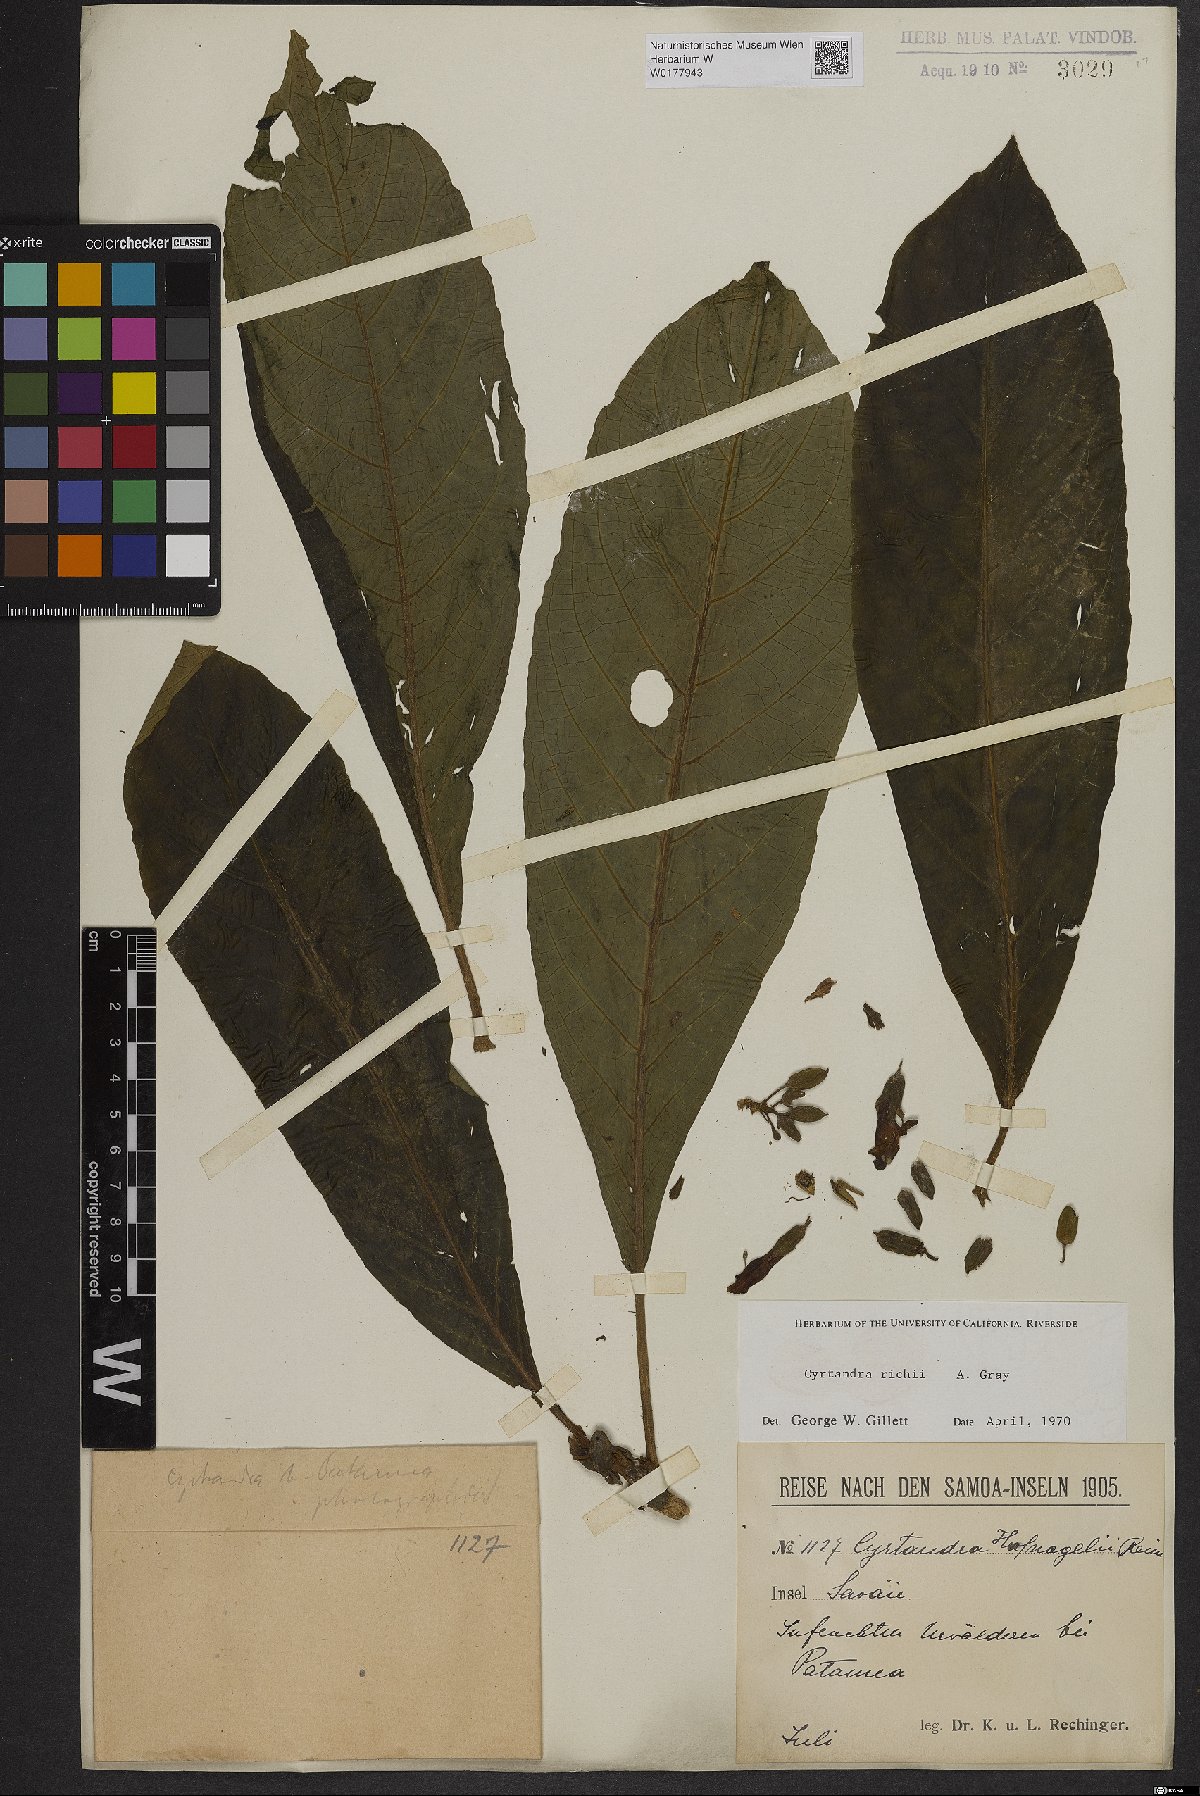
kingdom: Plantae
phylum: Tracheophyta
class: Magnoliopsida
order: Lamiales
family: Gesneriaceae
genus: Cyrtandra
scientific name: Cyrtandra richii
